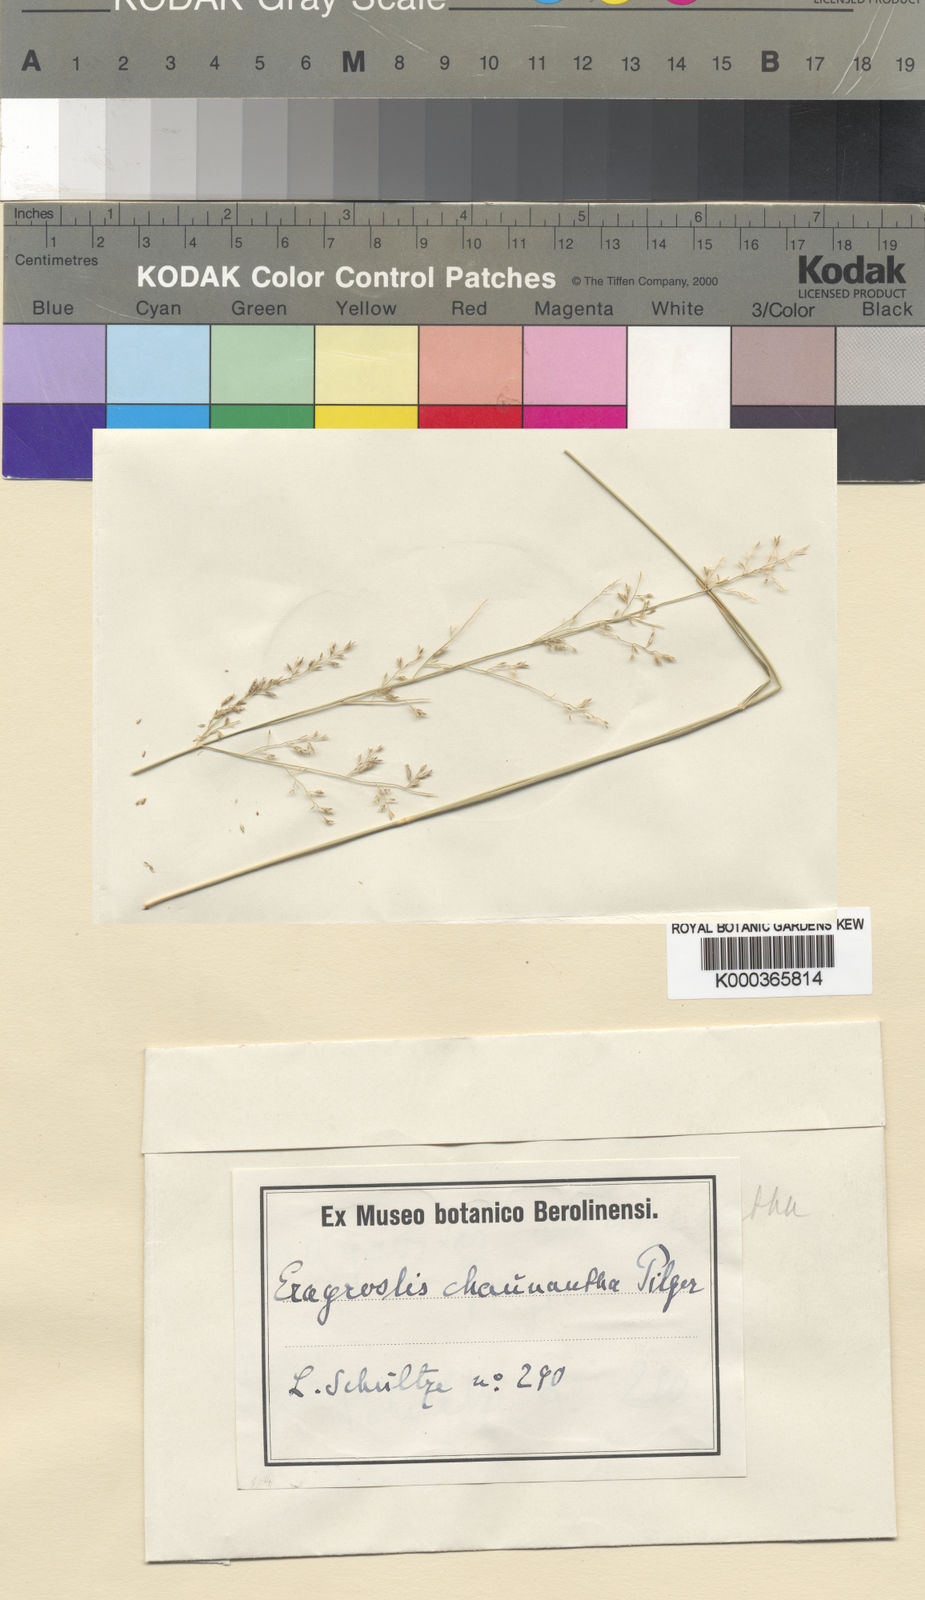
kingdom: Plantae
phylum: Tracheophyta
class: Liliopsida
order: Poales
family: Poaceae
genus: Eragrostis
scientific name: Eragrostis lehmanniana
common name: Lehmann lovegrass
